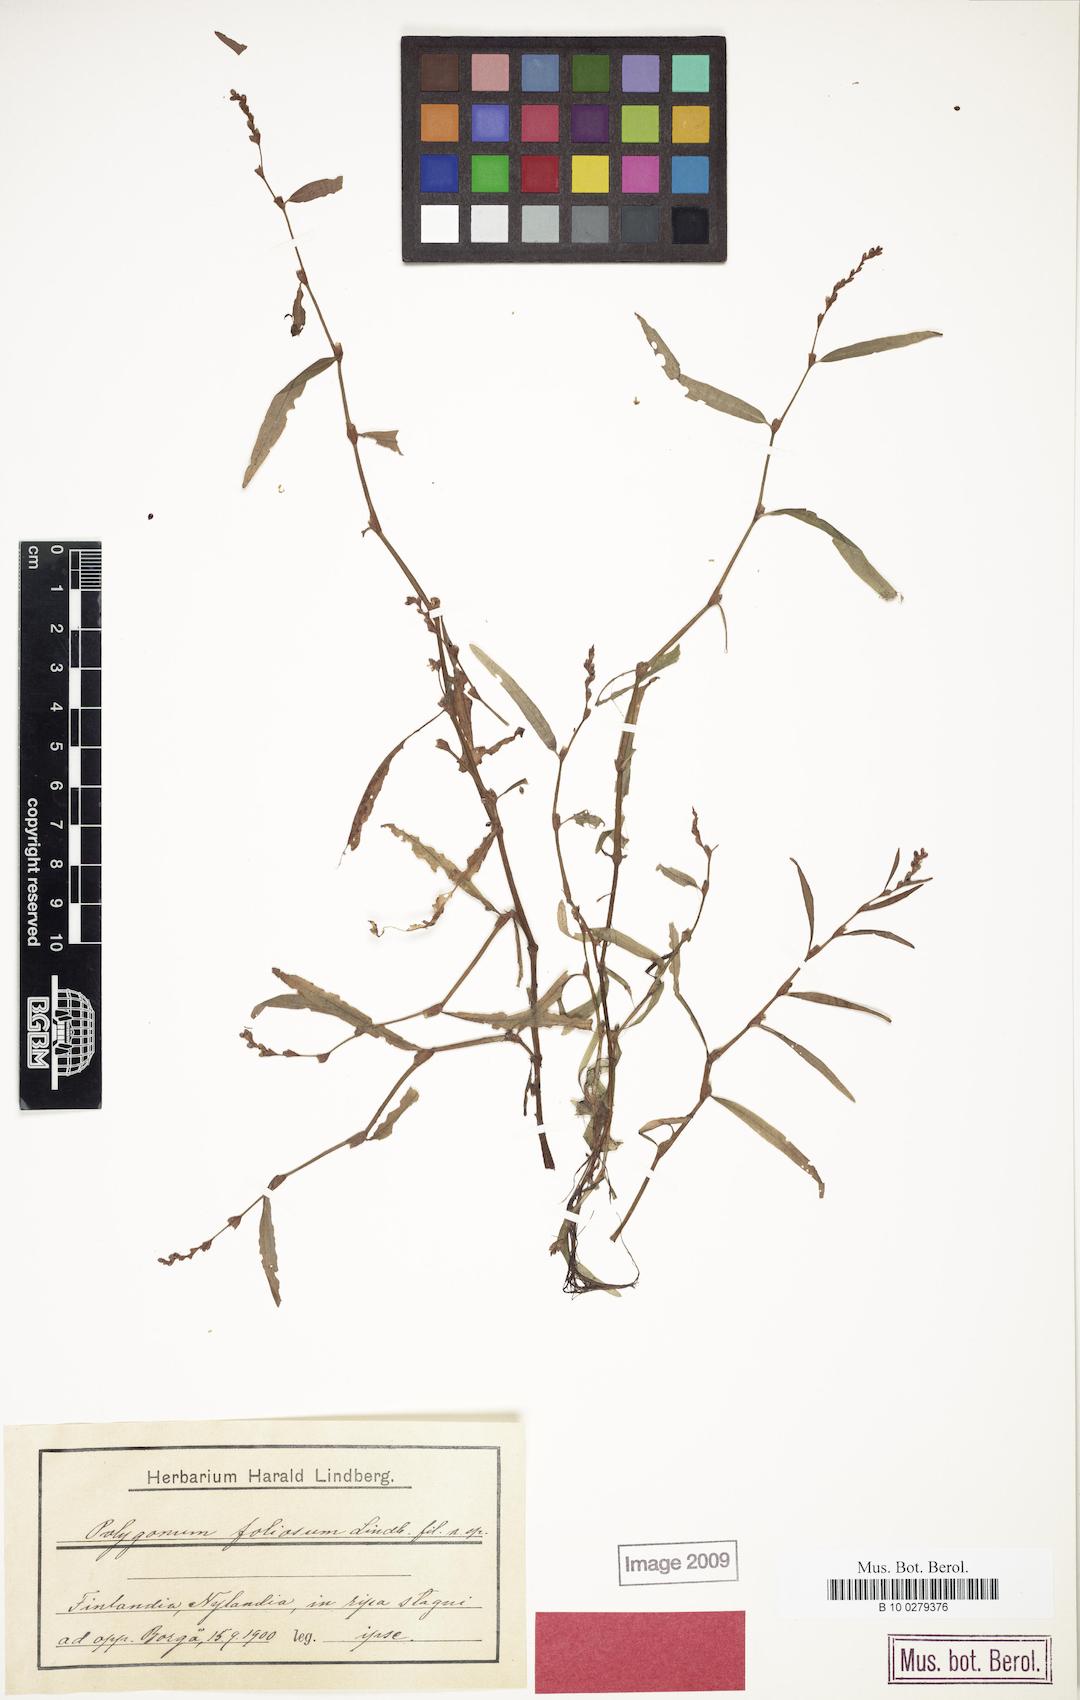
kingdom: Plantae
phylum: Tracheophyta
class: Magnoliopsida
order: Caryophyllales
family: Polygonaceae
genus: Persicaria
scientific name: Persicaria foliosa
